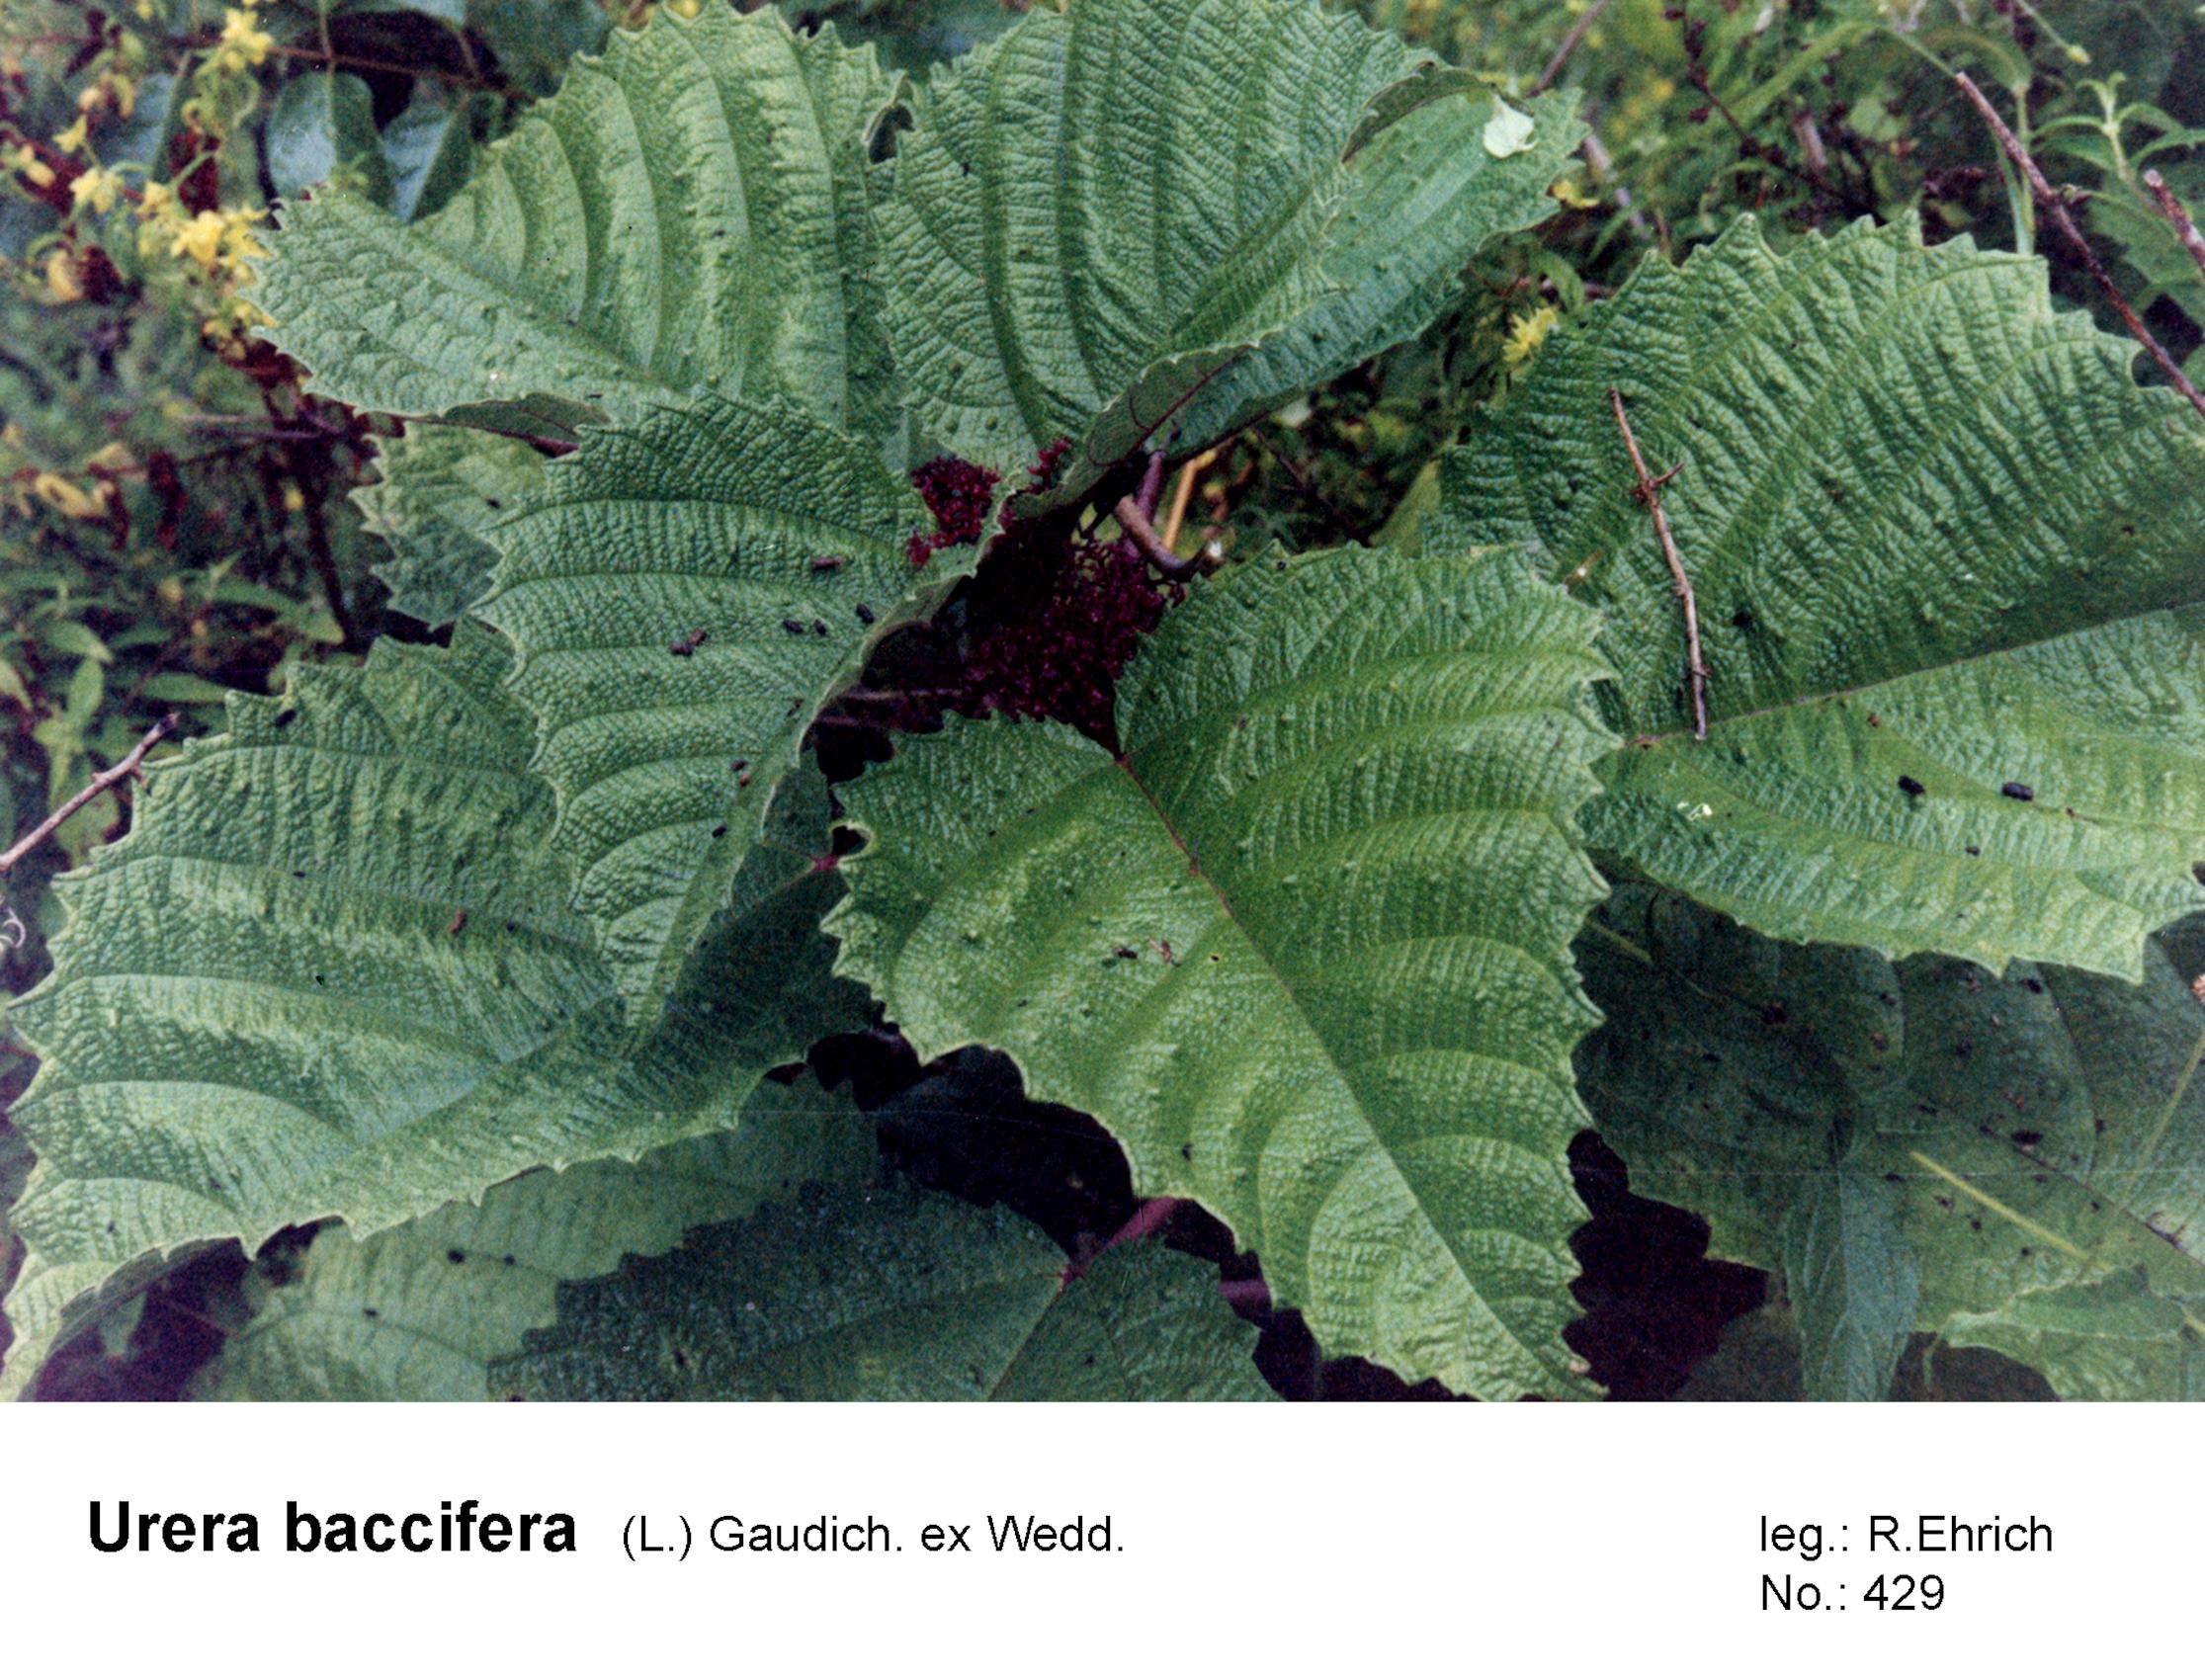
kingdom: Plantae
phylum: Tracheophyta
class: Magnoliopsida
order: Rosales
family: Urticaceae
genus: Urera
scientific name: Urera baccifera
